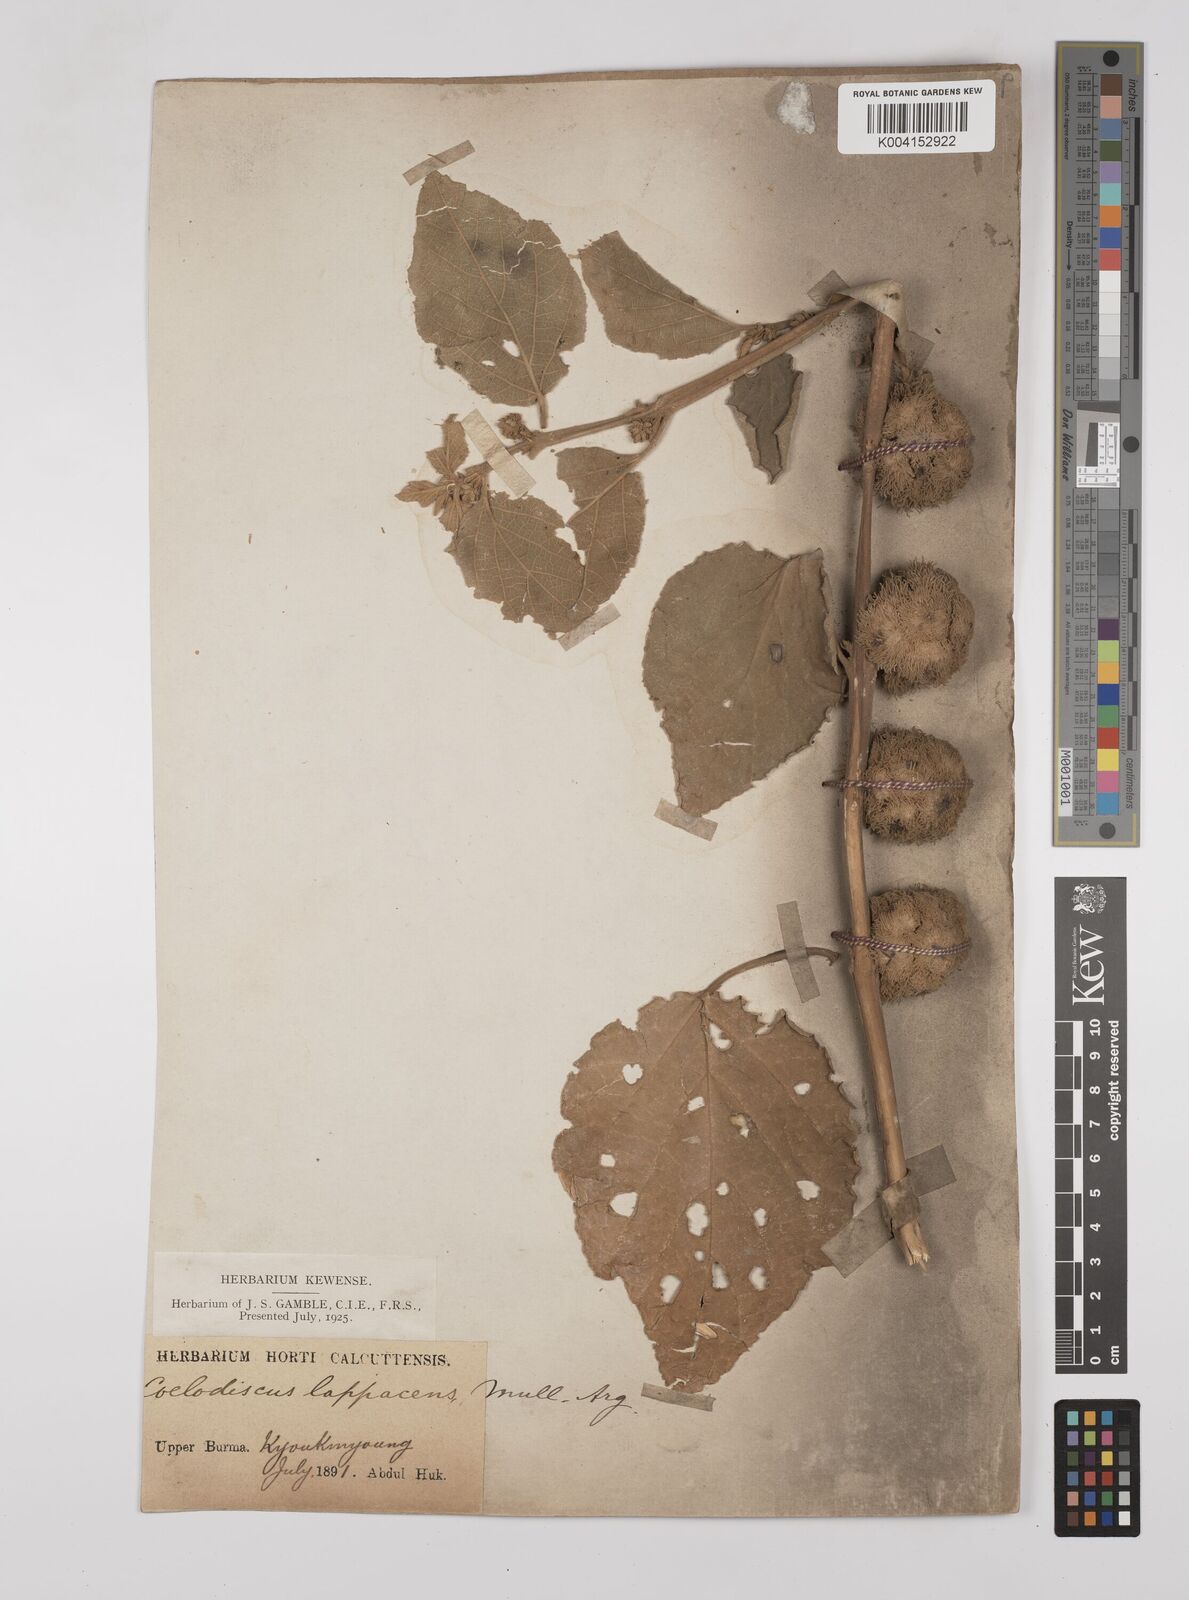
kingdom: Plantae
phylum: Tracheophyta
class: Magnoliopsida
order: Malpighiales
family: Euphorbiaceae
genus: Mallotus
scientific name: Mallotus lappaceus
